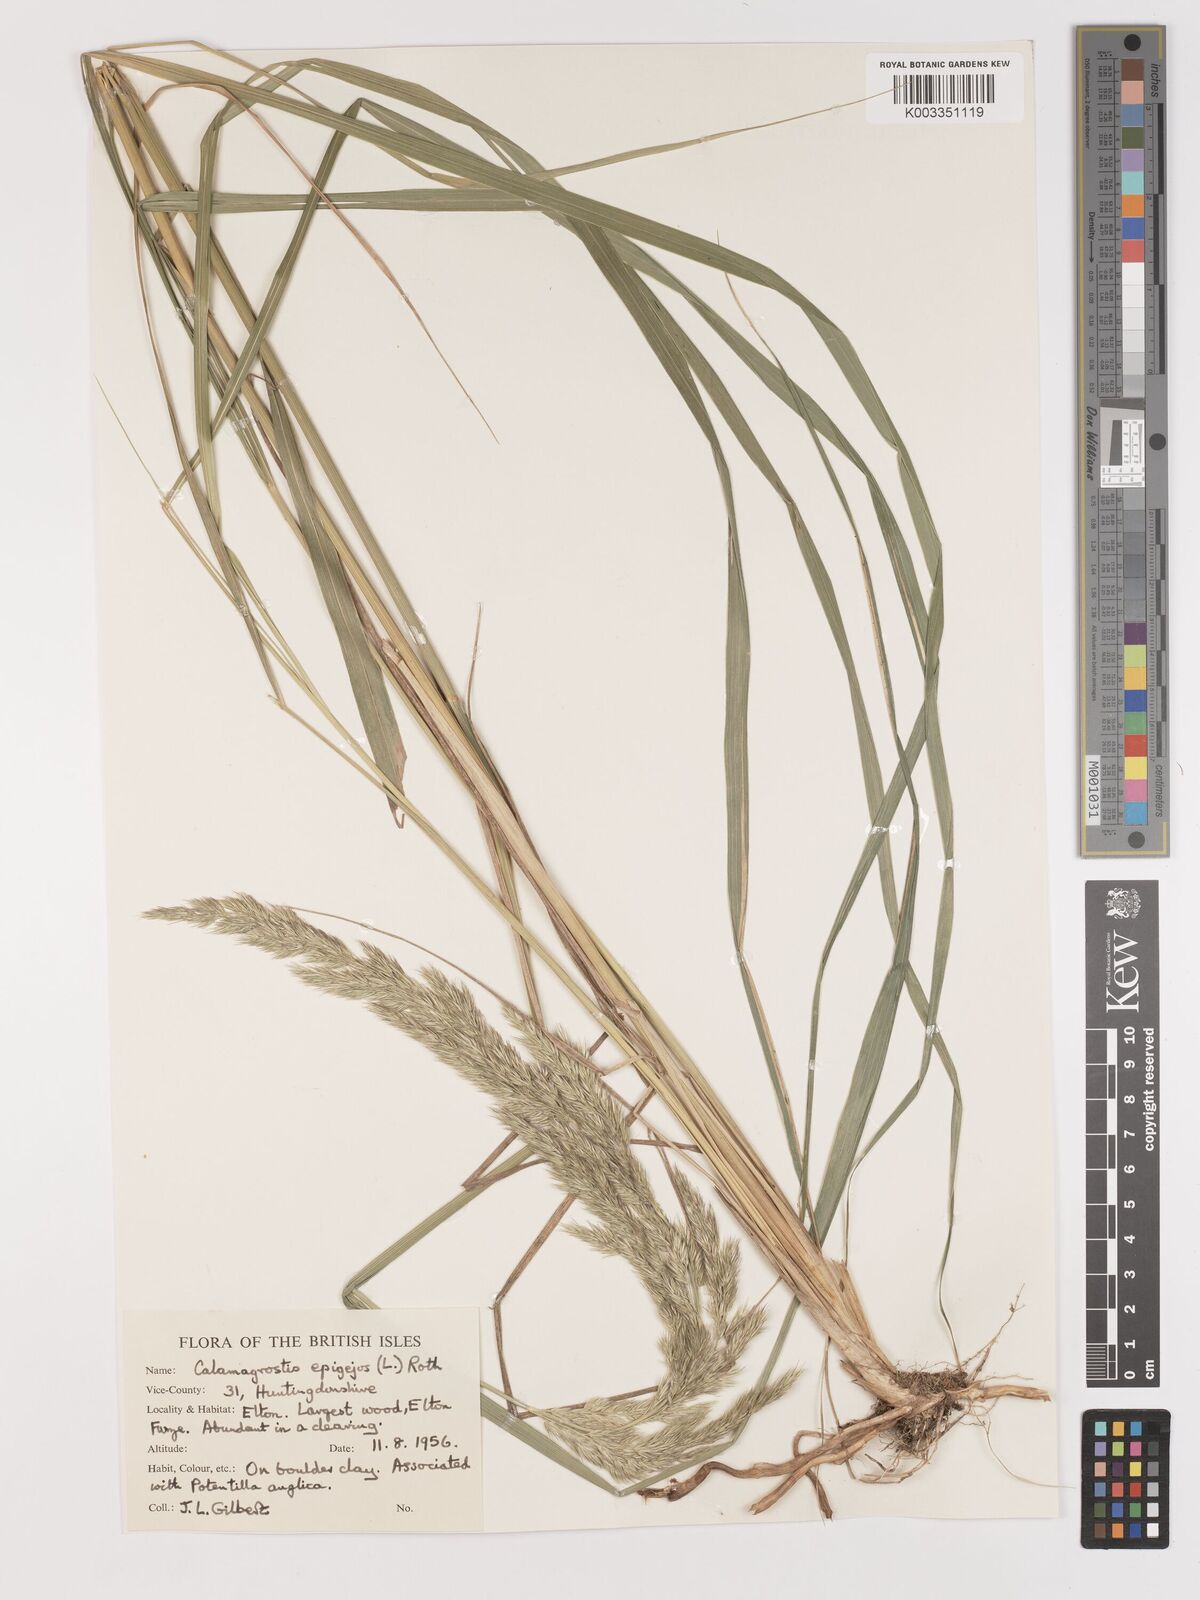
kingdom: Plantae
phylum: Tracheophyta
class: Liliopsida
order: Poales
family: Poaceae
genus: Calamagrostis
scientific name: Calamagrostis
